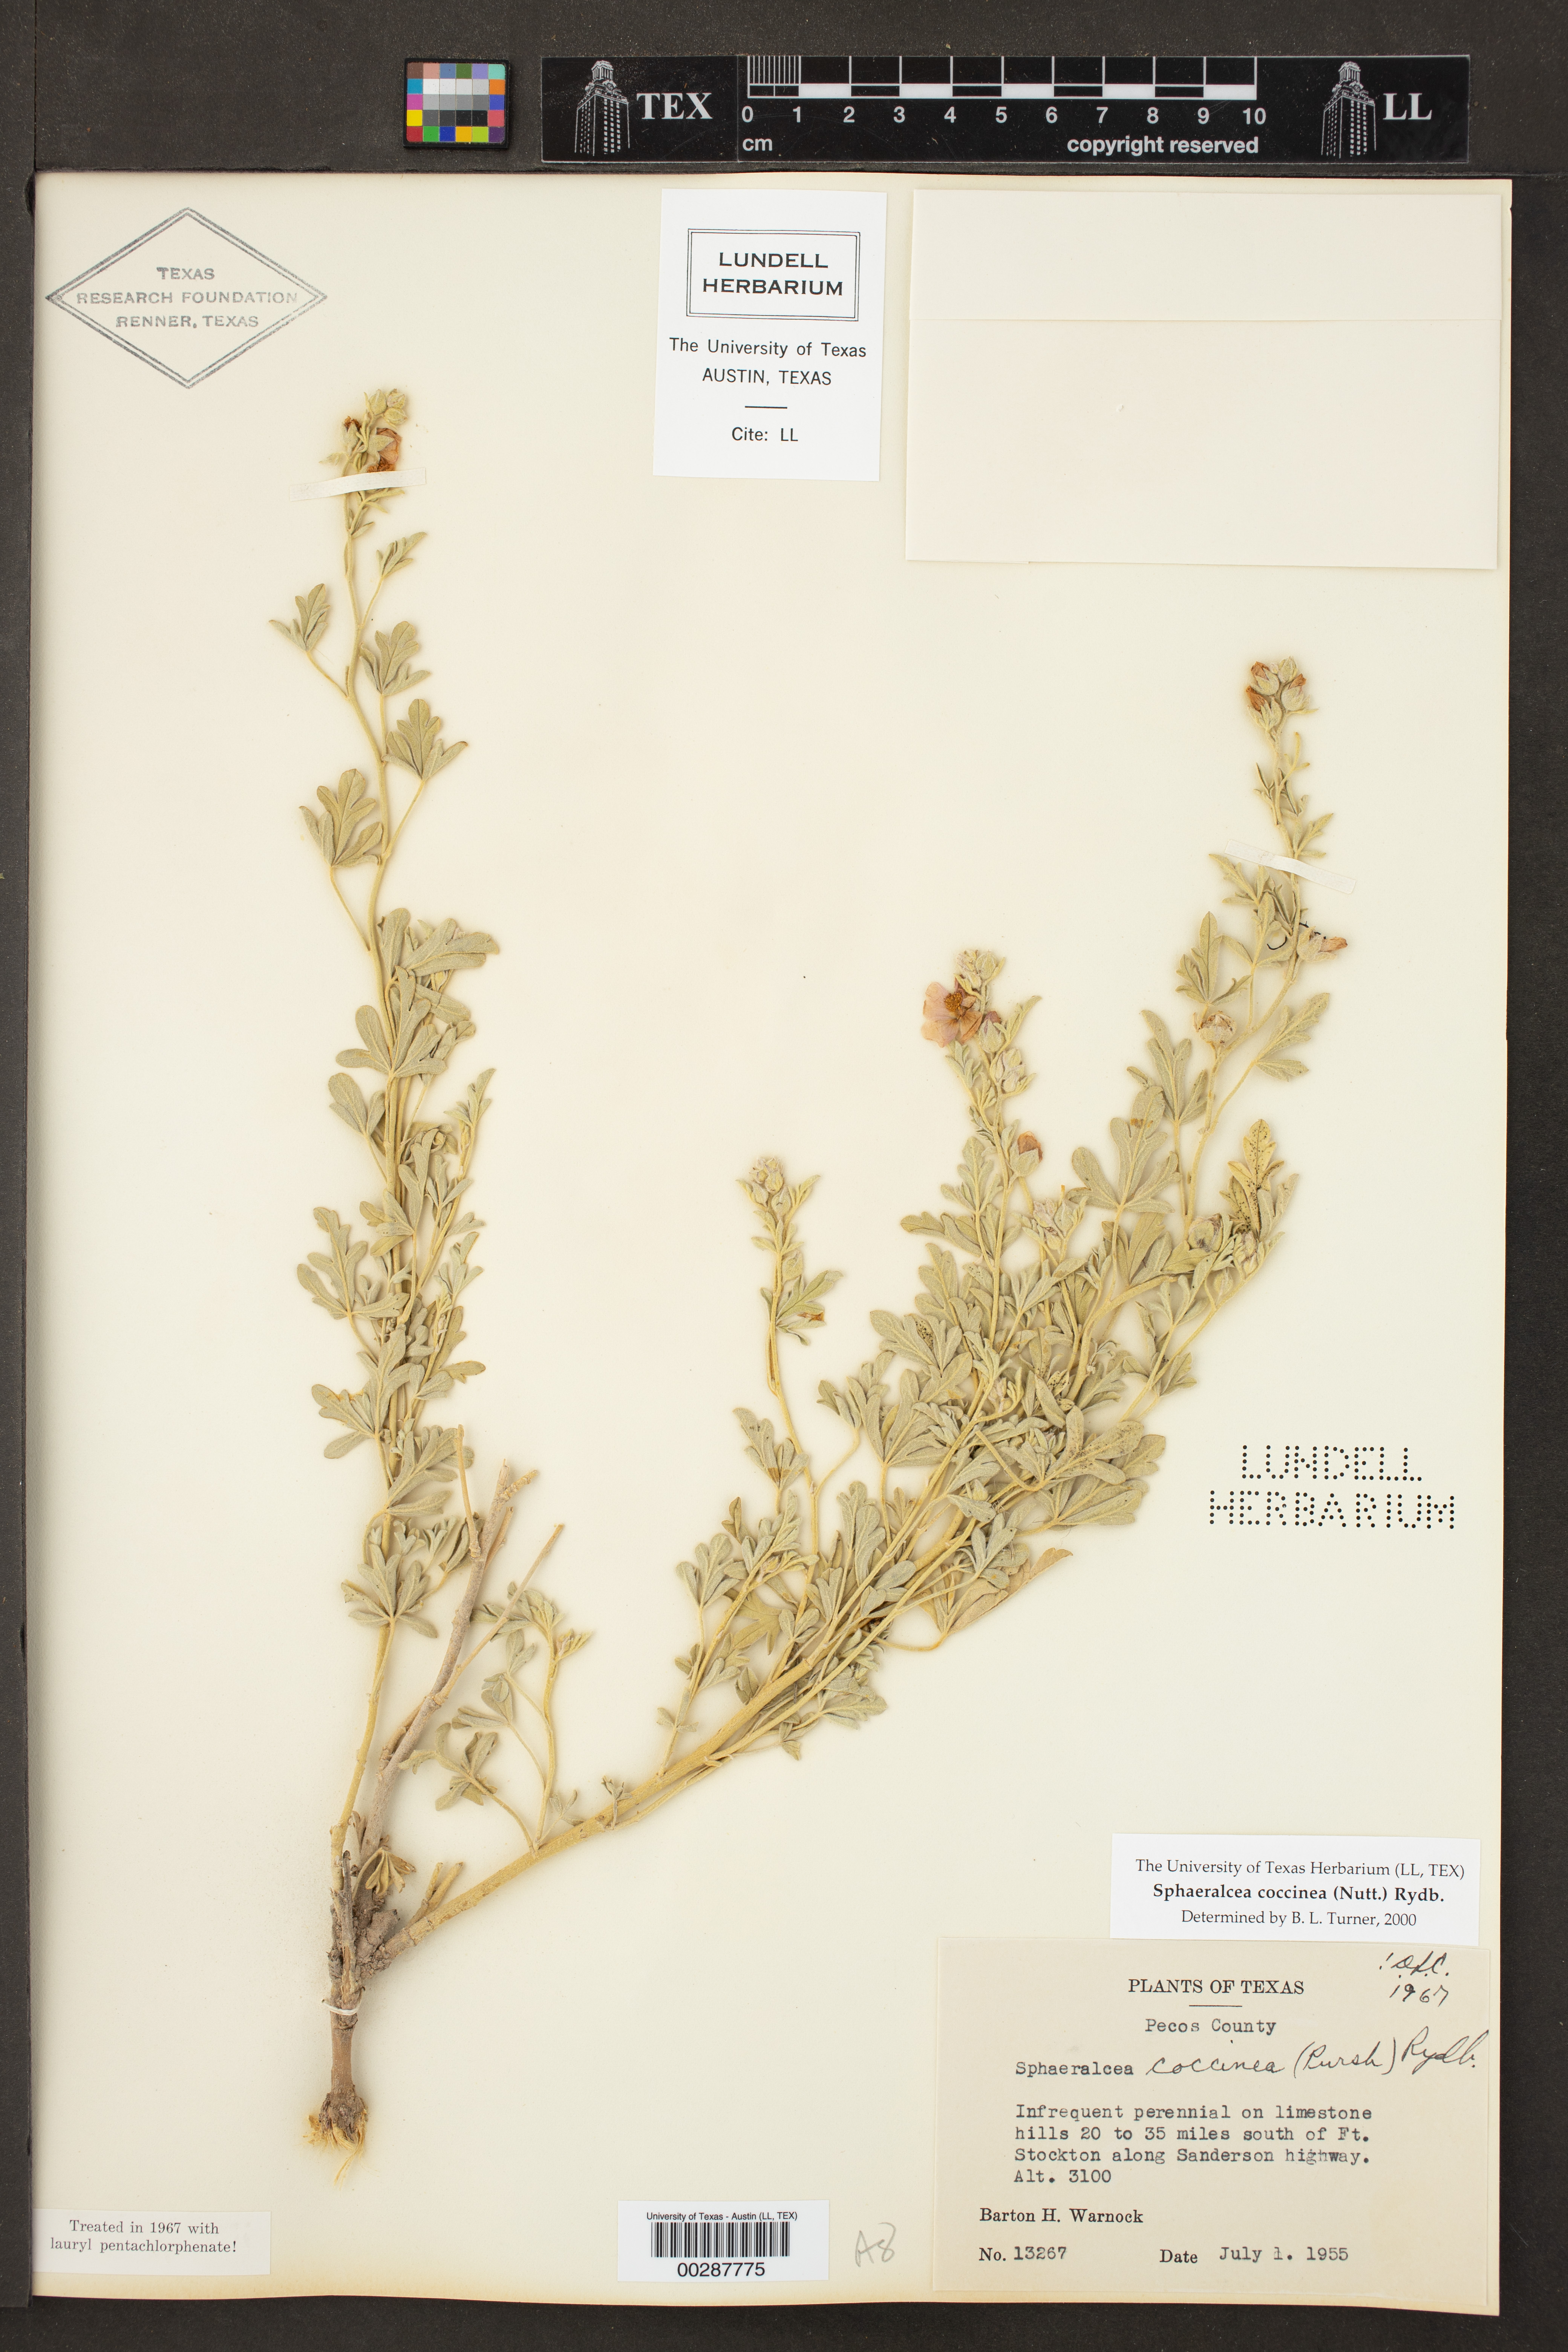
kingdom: Plantae
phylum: Tracheophyta
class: Magnoliopsida
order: Malvales
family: Malvaceae
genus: Sphaeralcea
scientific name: Sphaeralcea coccinea
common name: Moss-rose
